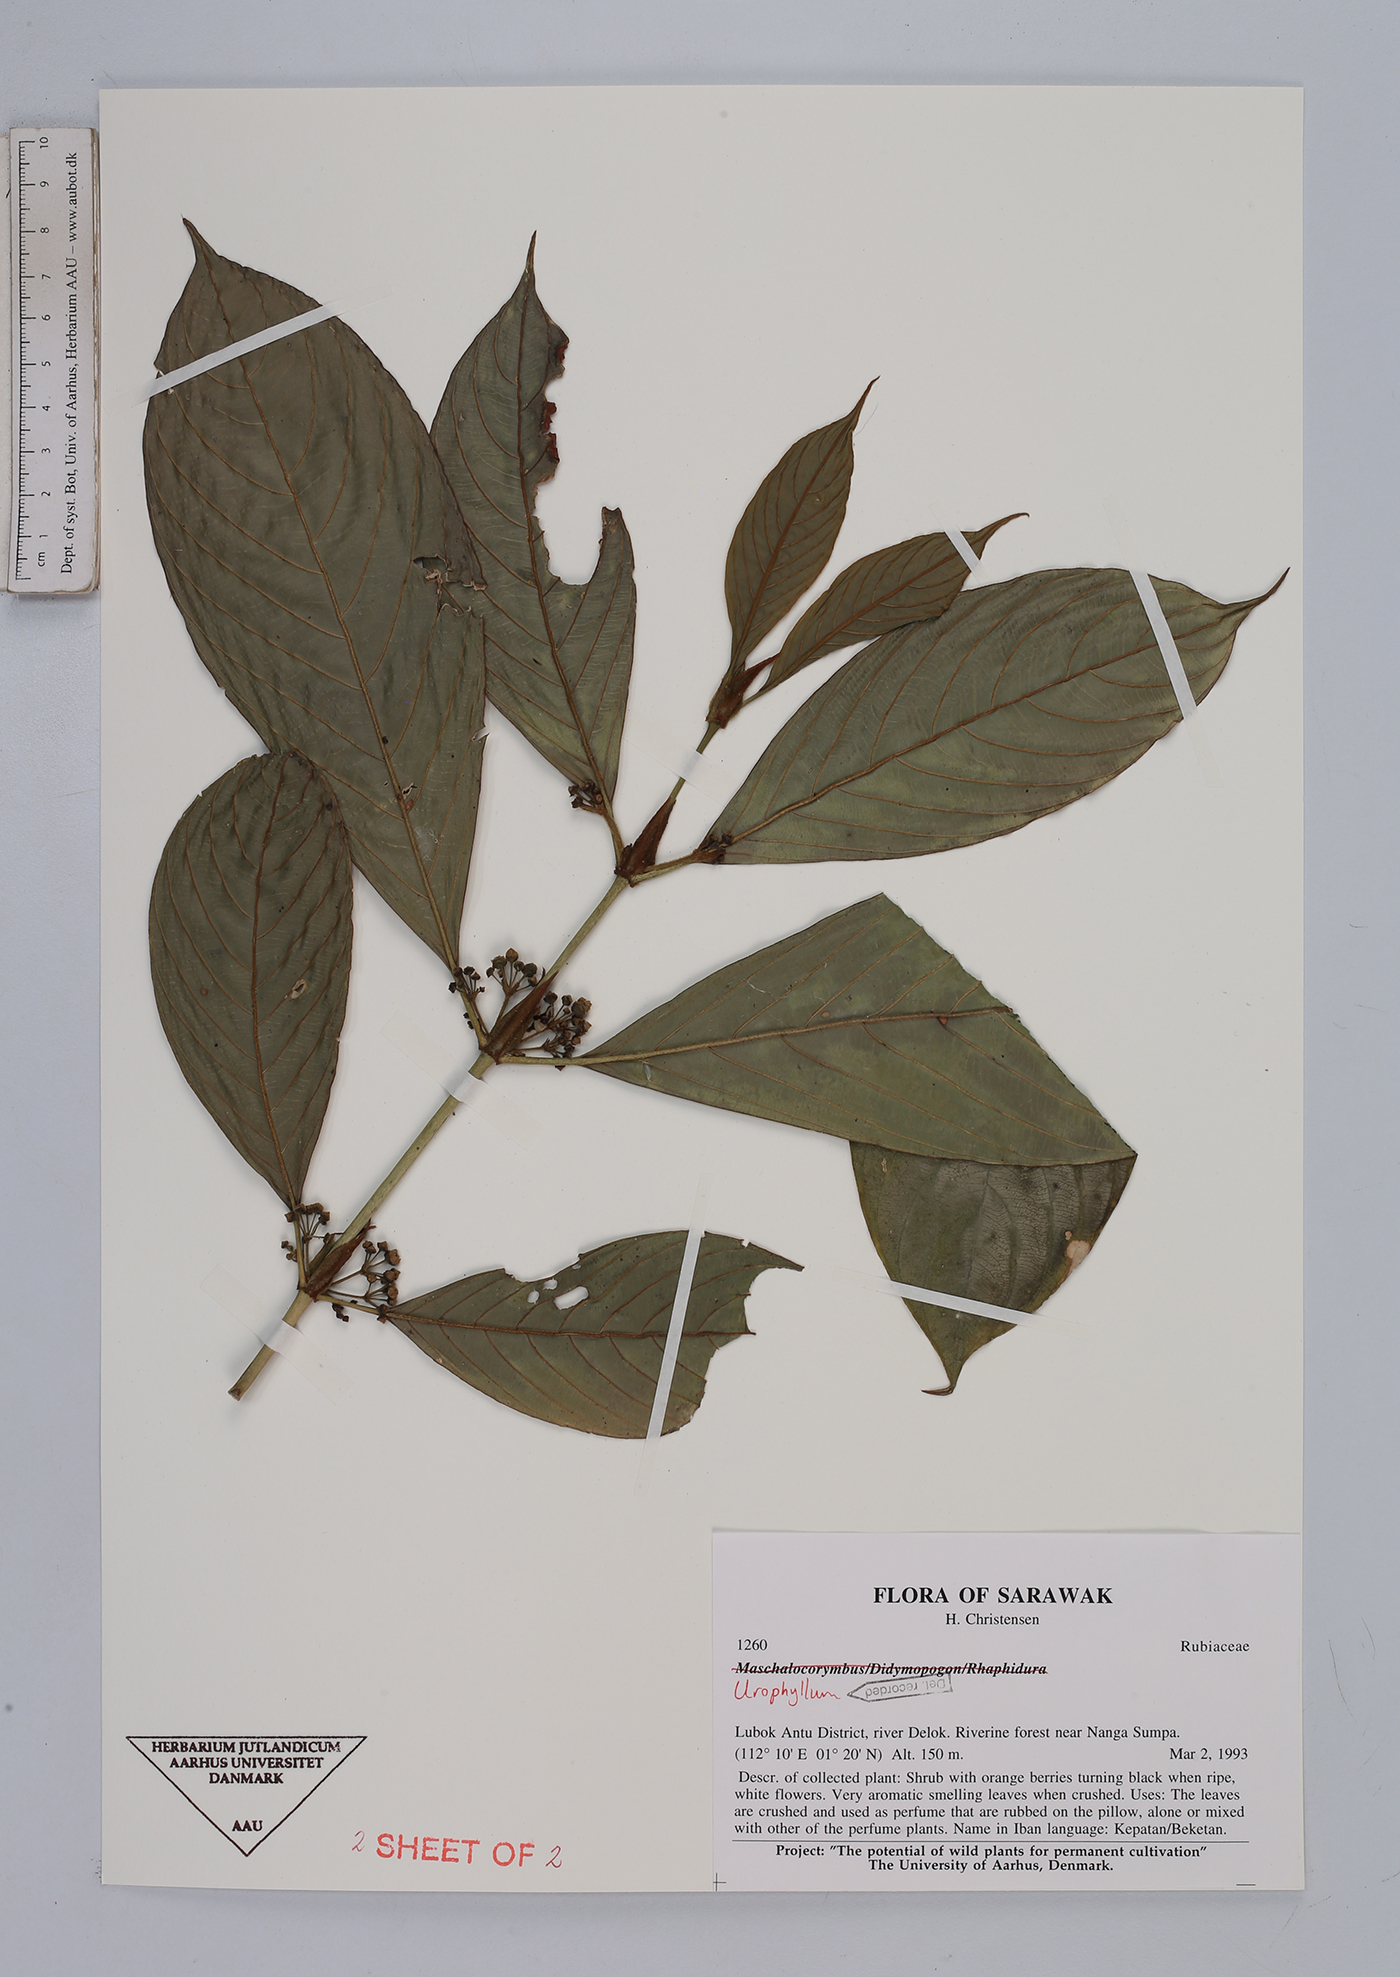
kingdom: Plantae
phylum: Tracheophyta
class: Magnoliopsida
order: Gentianales
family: Rubiaceae
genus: Urophyllum
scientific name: Urophyllum
